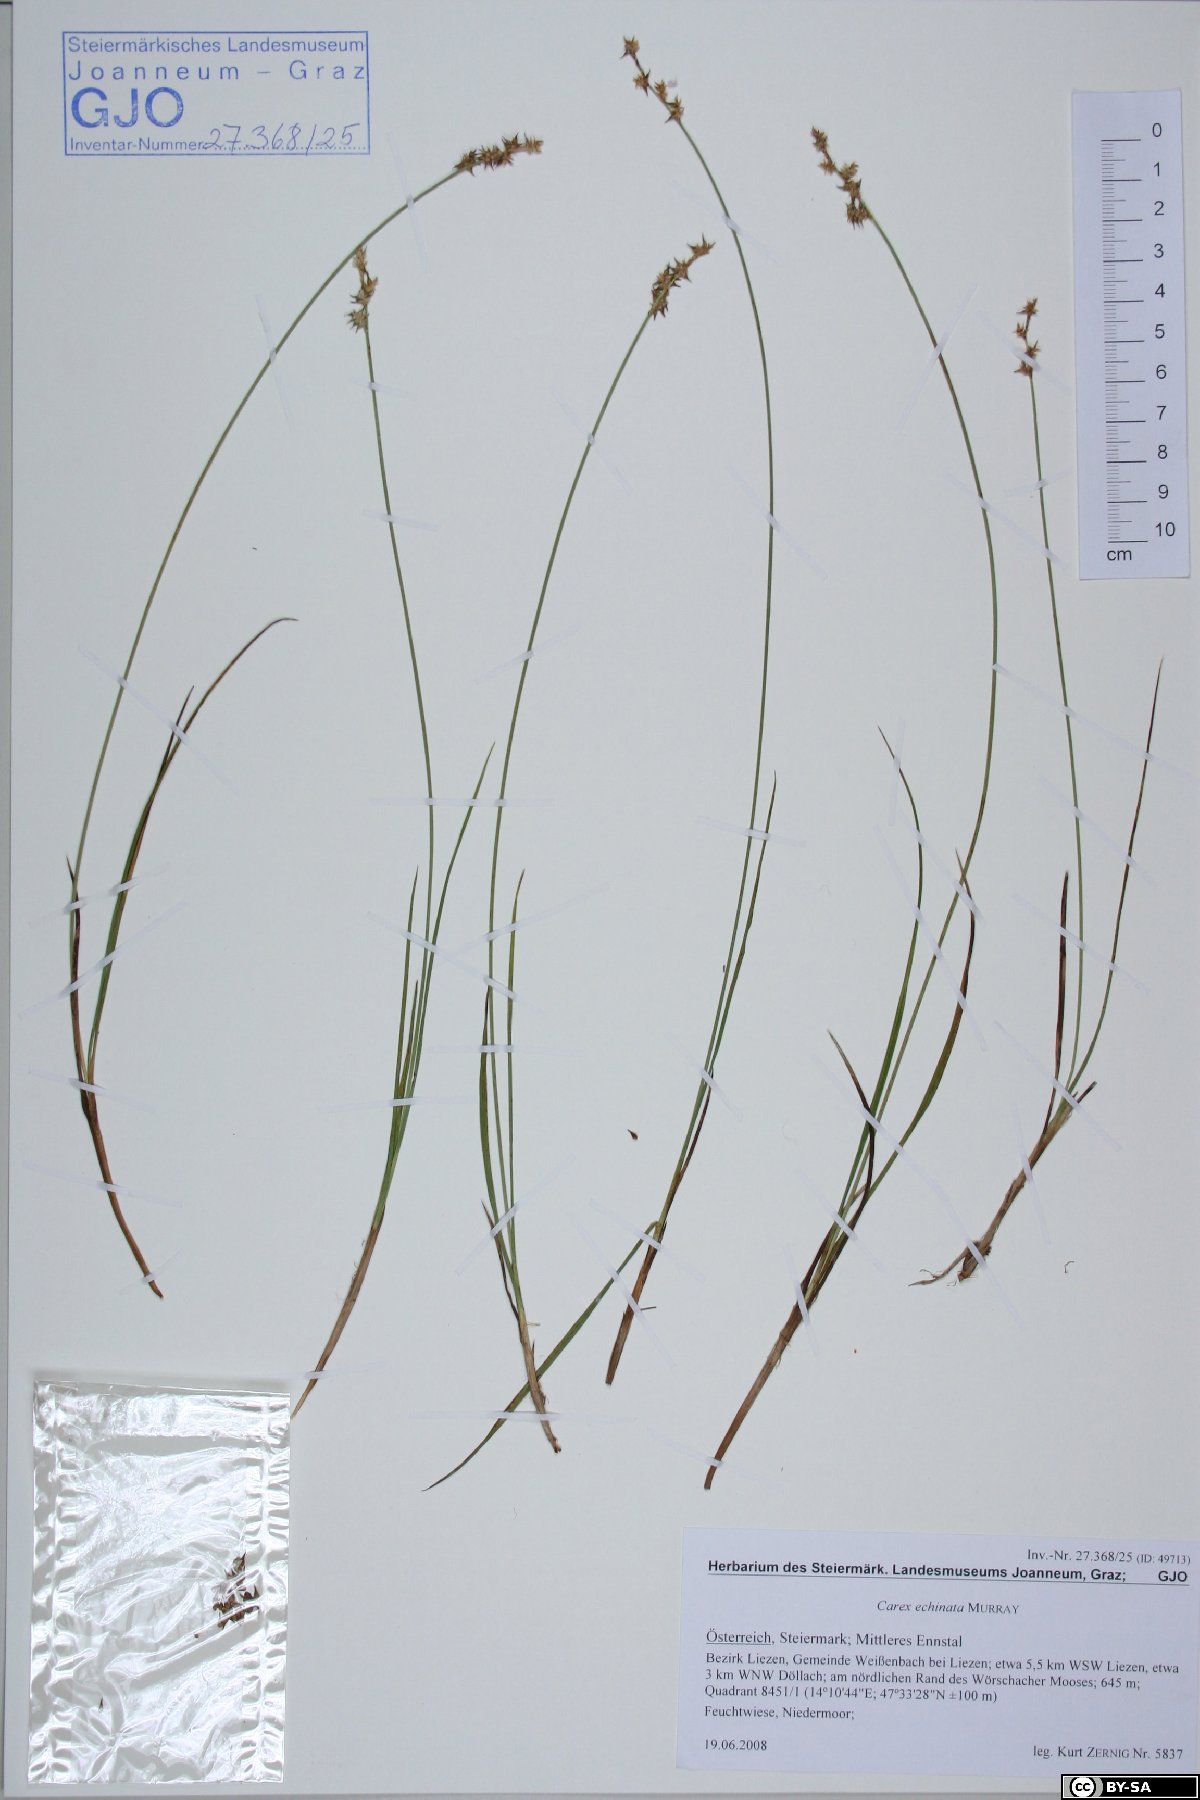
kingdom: Plantae
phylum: Tracheophyta
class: Liliopsida
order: Poales
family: Cyperaceae
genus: Carex
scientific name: Carex echinata
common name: Star sedge
